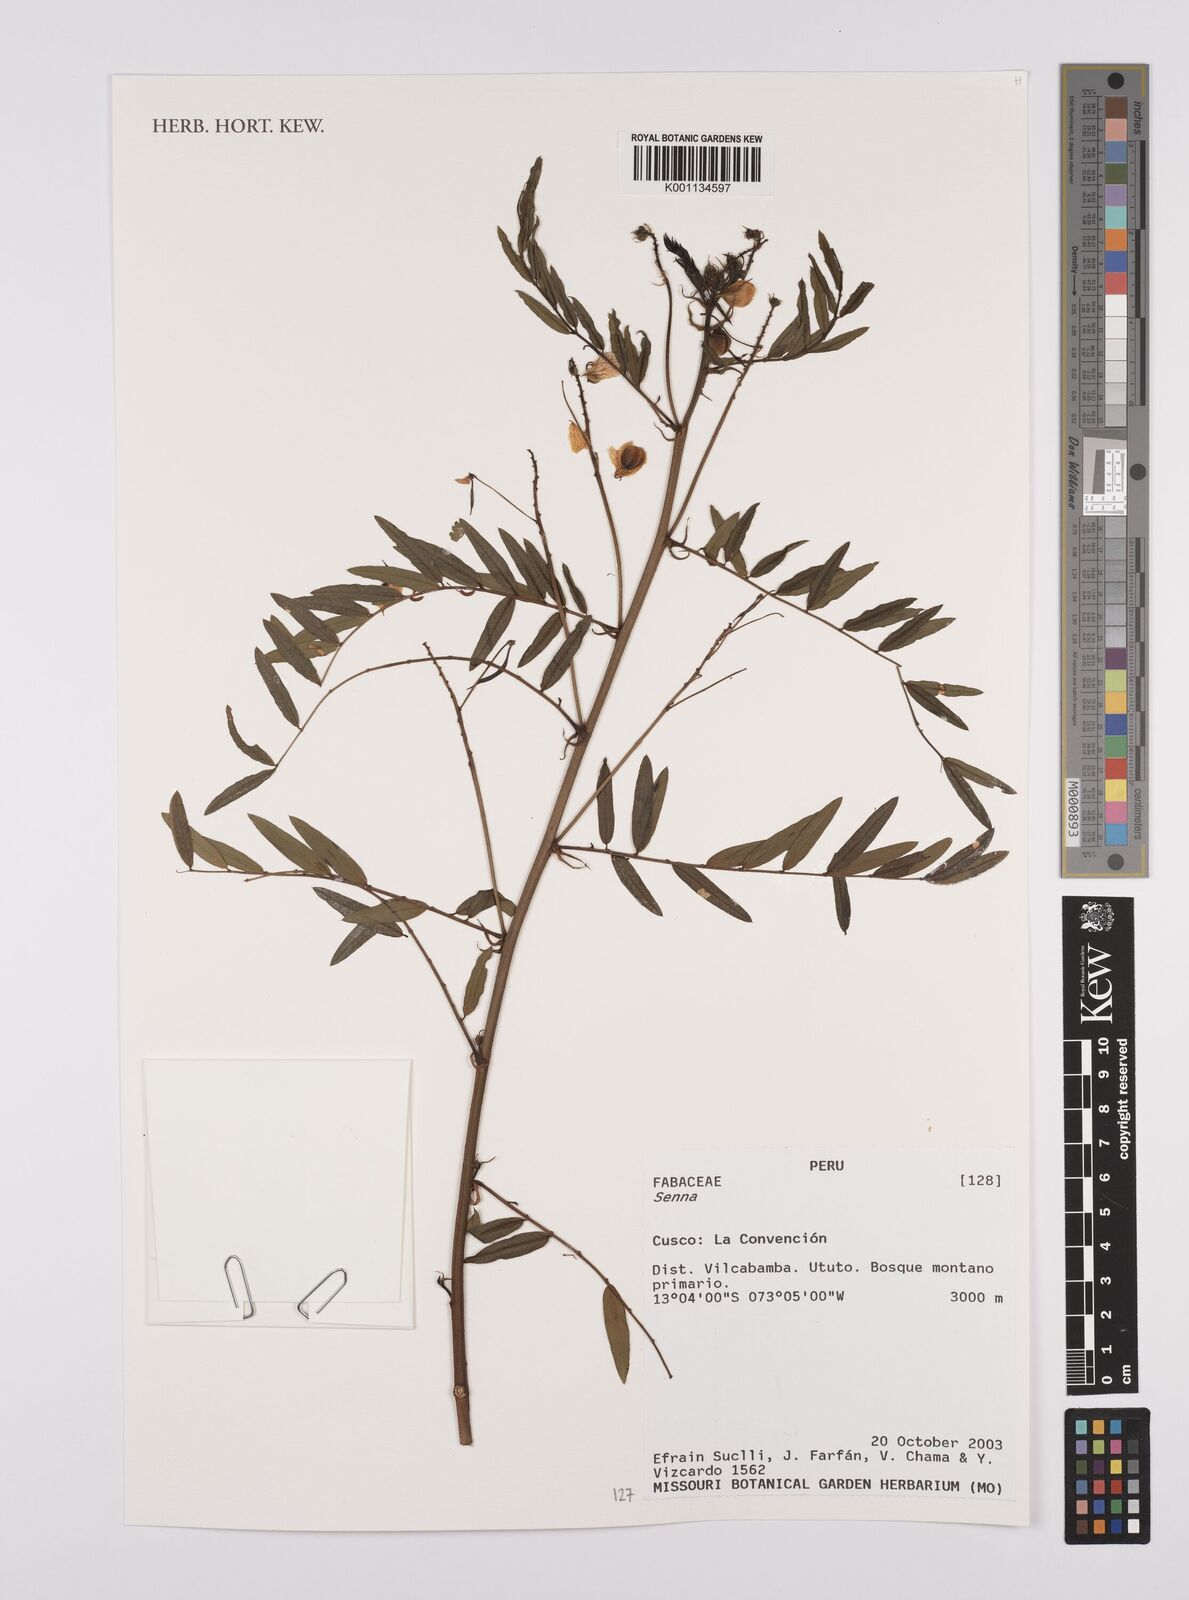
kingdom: Plantae
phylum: Tracheophyta
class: Magnoliopsida
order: Fabales
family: Fabaceae
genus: Senna
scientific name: Senna
